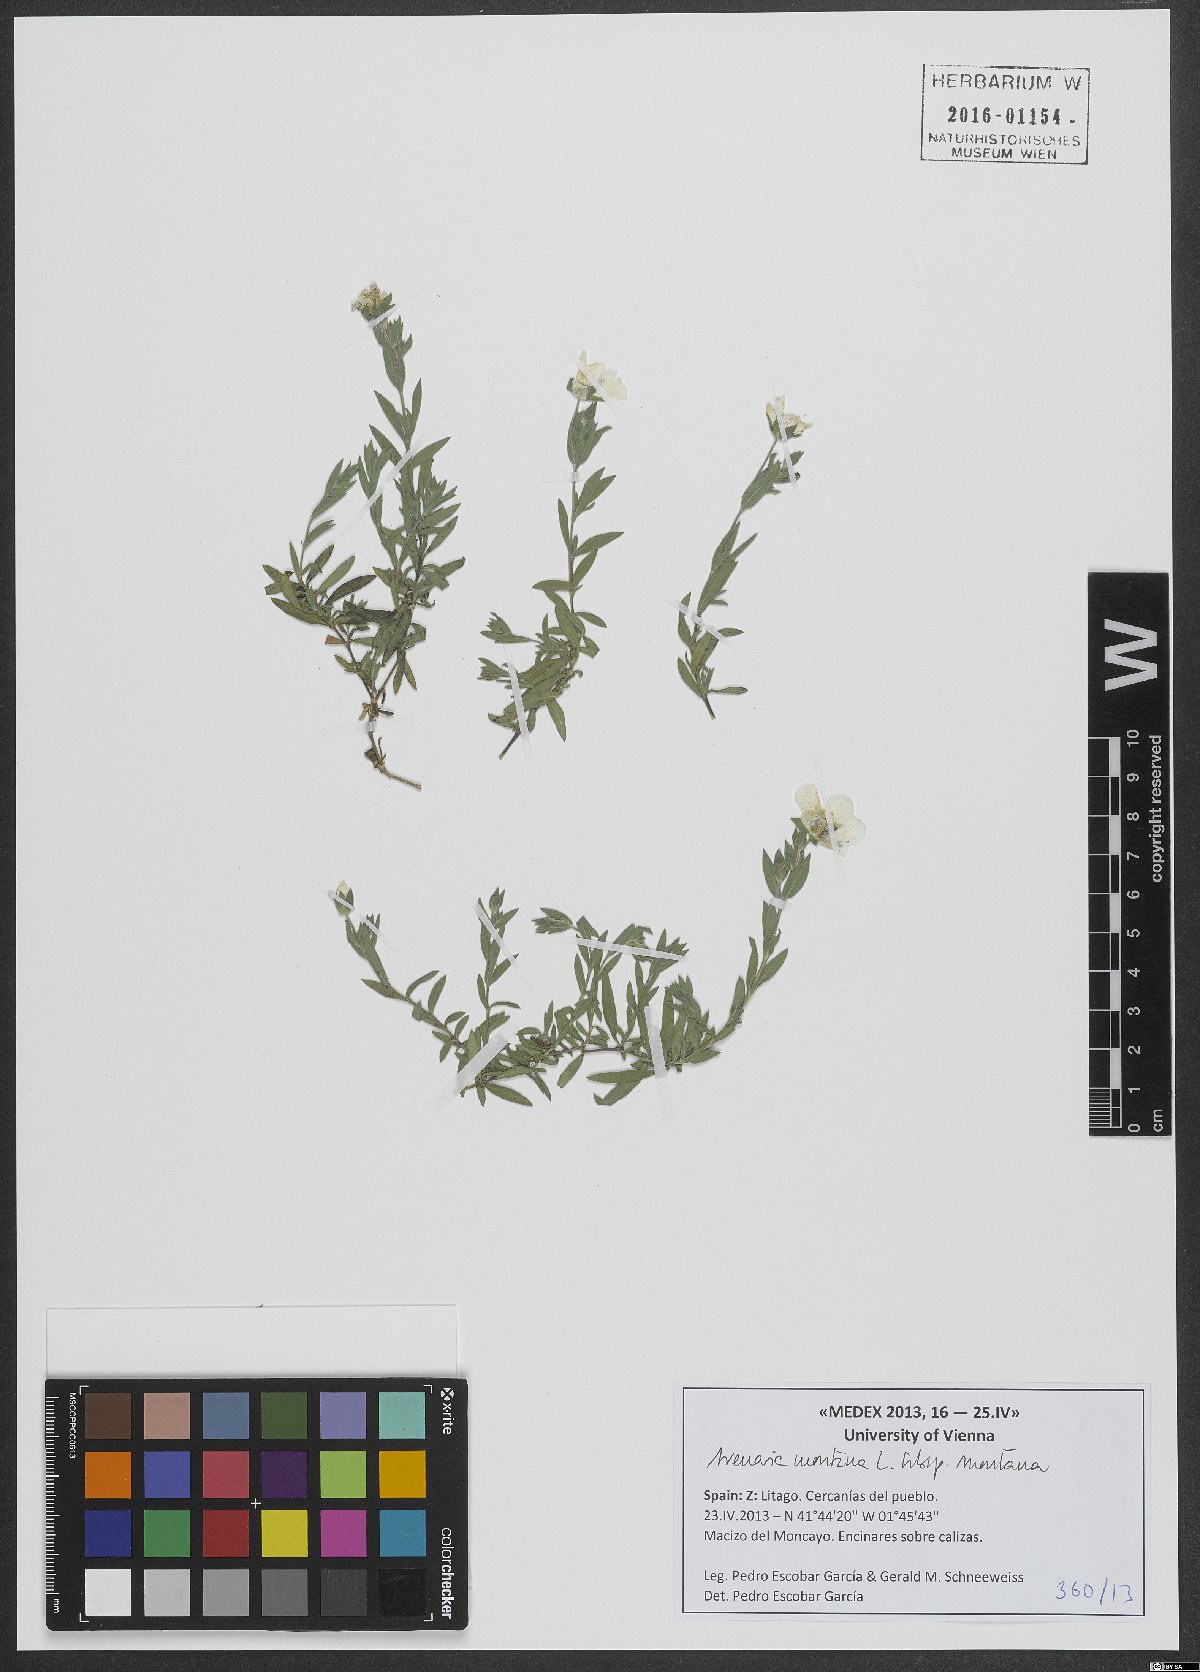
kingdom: Plantae
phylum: Tracheophyta
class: Magnoliopsida
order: Caryophyllales
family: Caryophyllaceae
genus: Arenaria
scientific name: Arenaria montana
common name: Mountain sandwort
